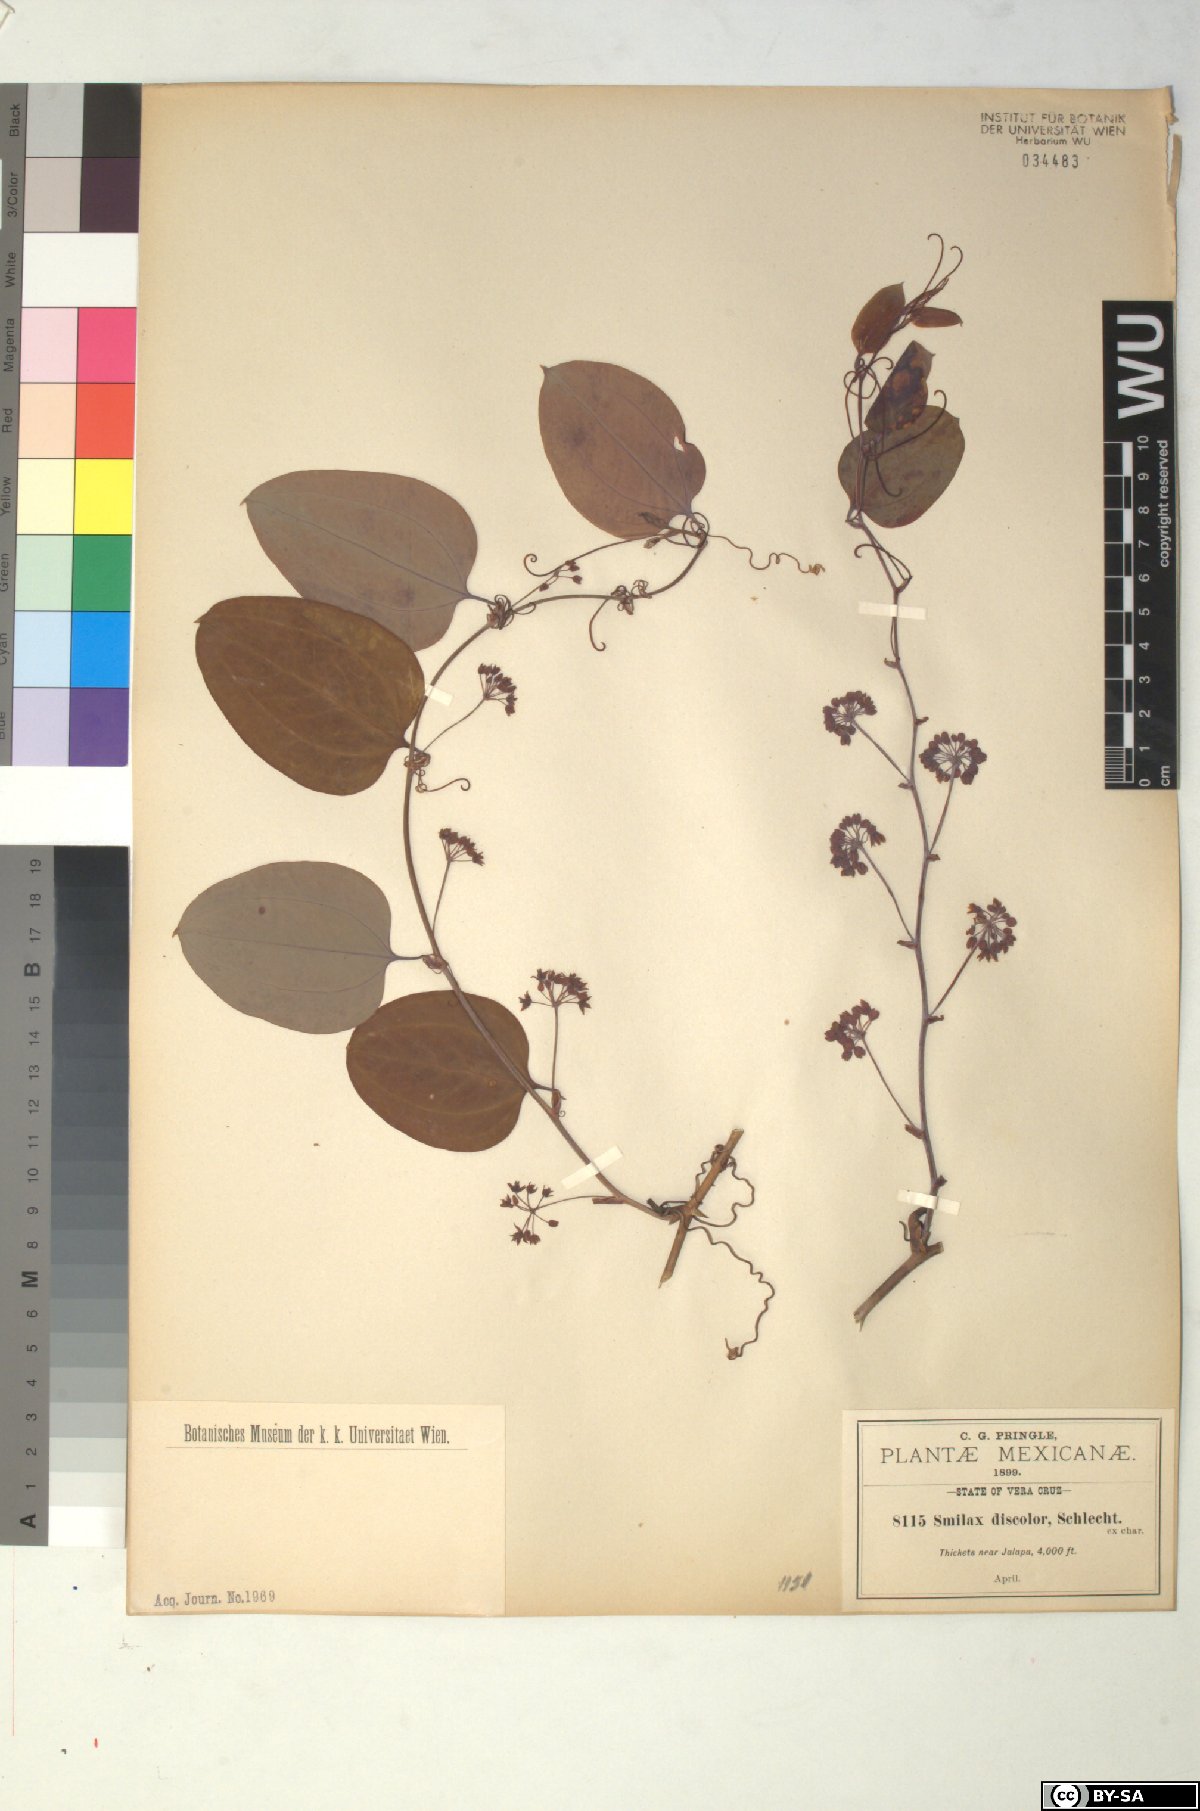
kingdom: Plantae
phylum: Tracheophyta
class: Liliopsida
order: Liliales
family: Smilacaceae
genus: Smilax
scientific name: Smilax glauca
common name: Cat greenbrier
